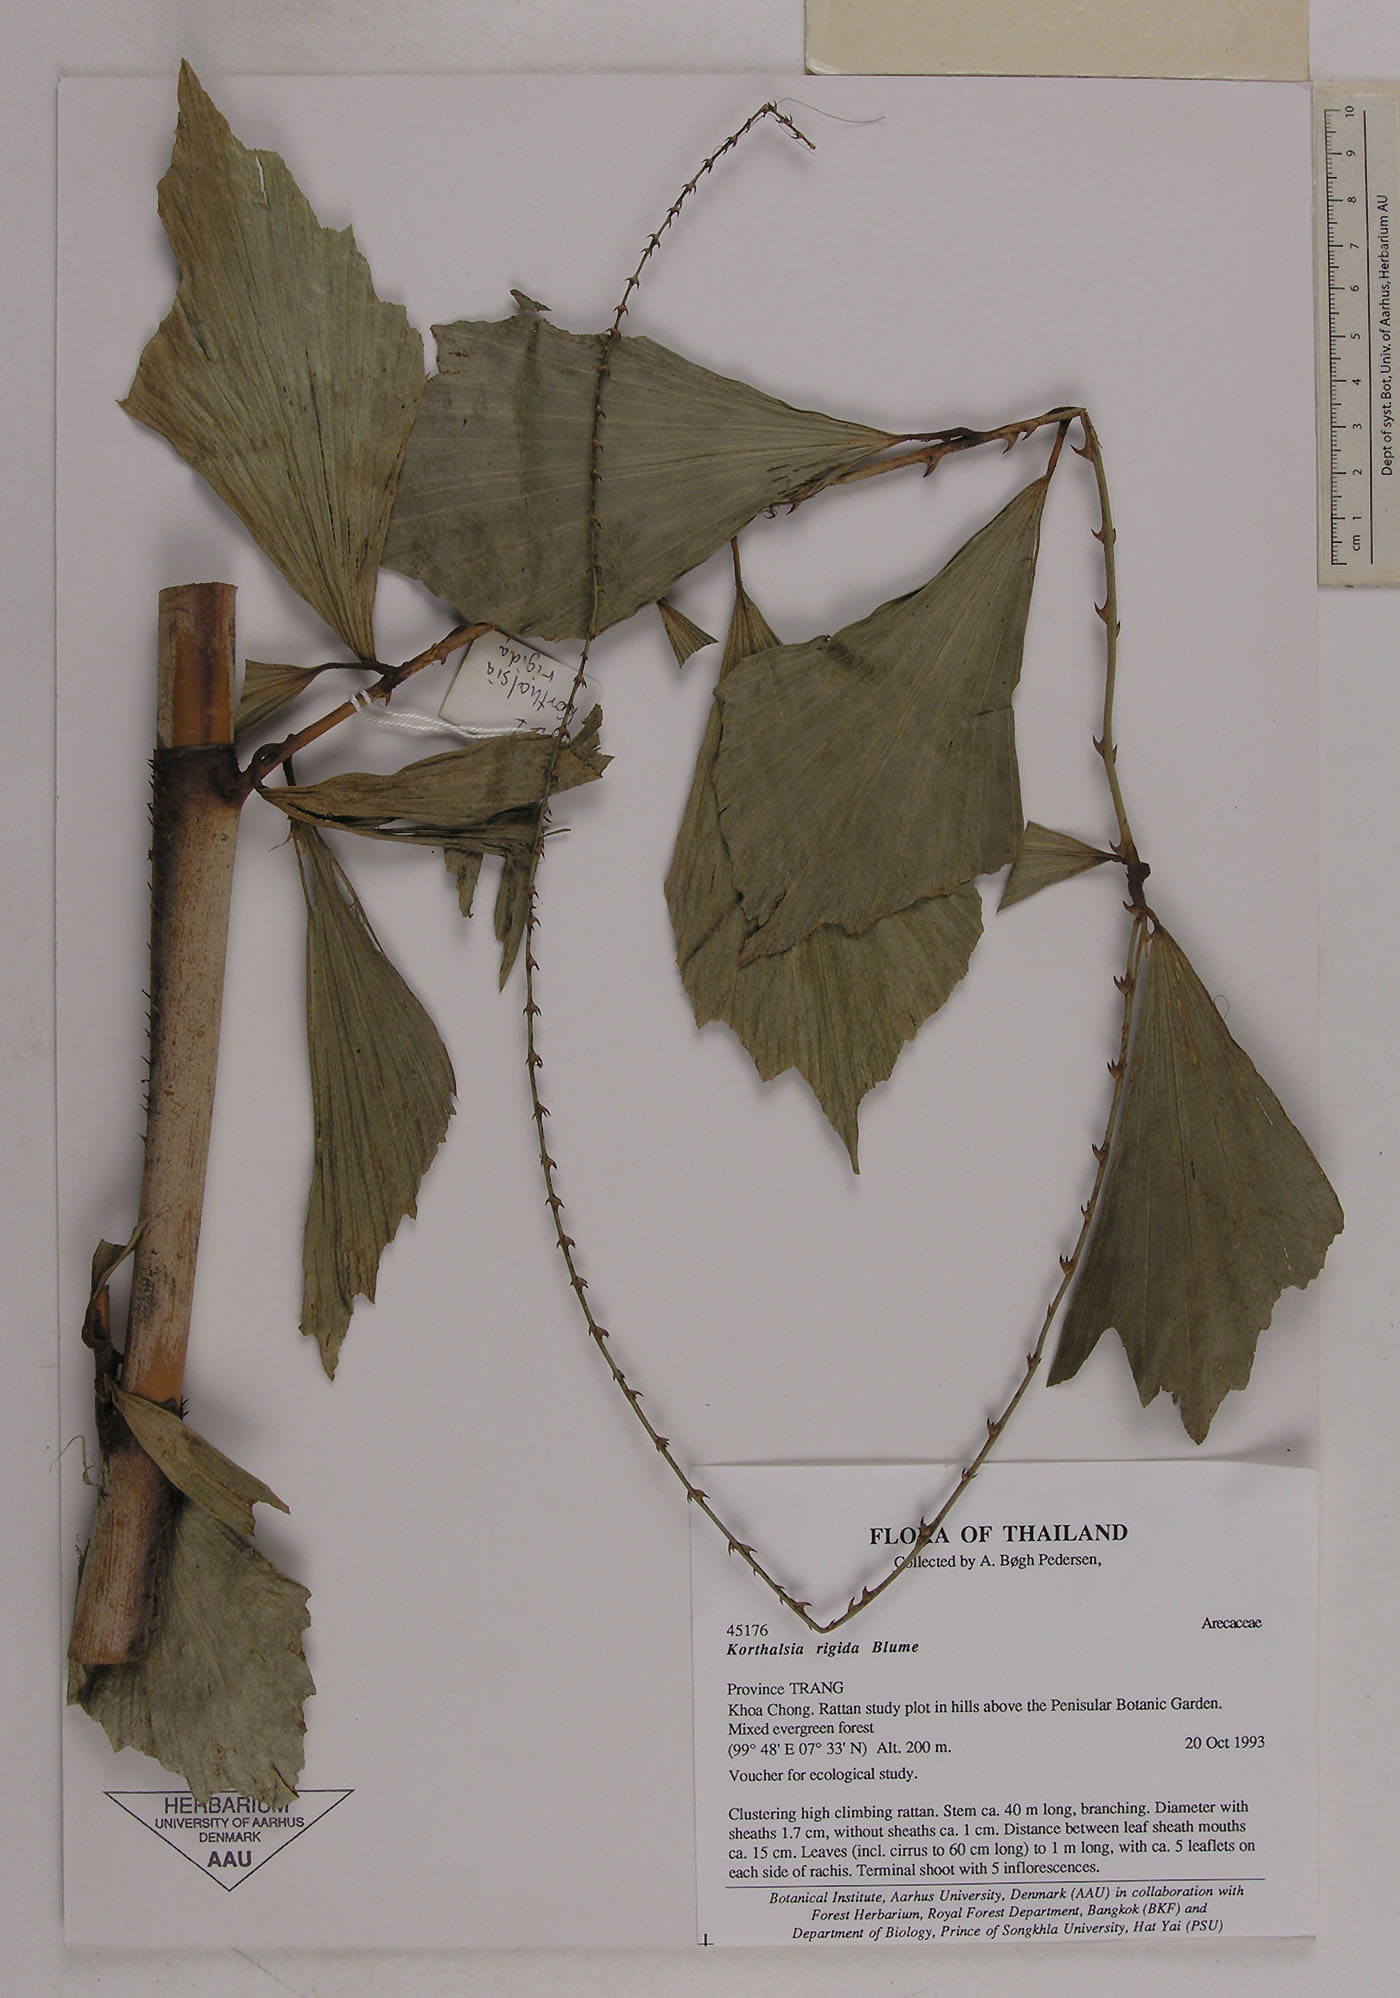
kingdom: Plantae
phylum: Tracheophyta
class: Liliopsida
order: Arecales
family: Arecaceae
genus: Korthalsia
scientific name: Korthalsia rigida
